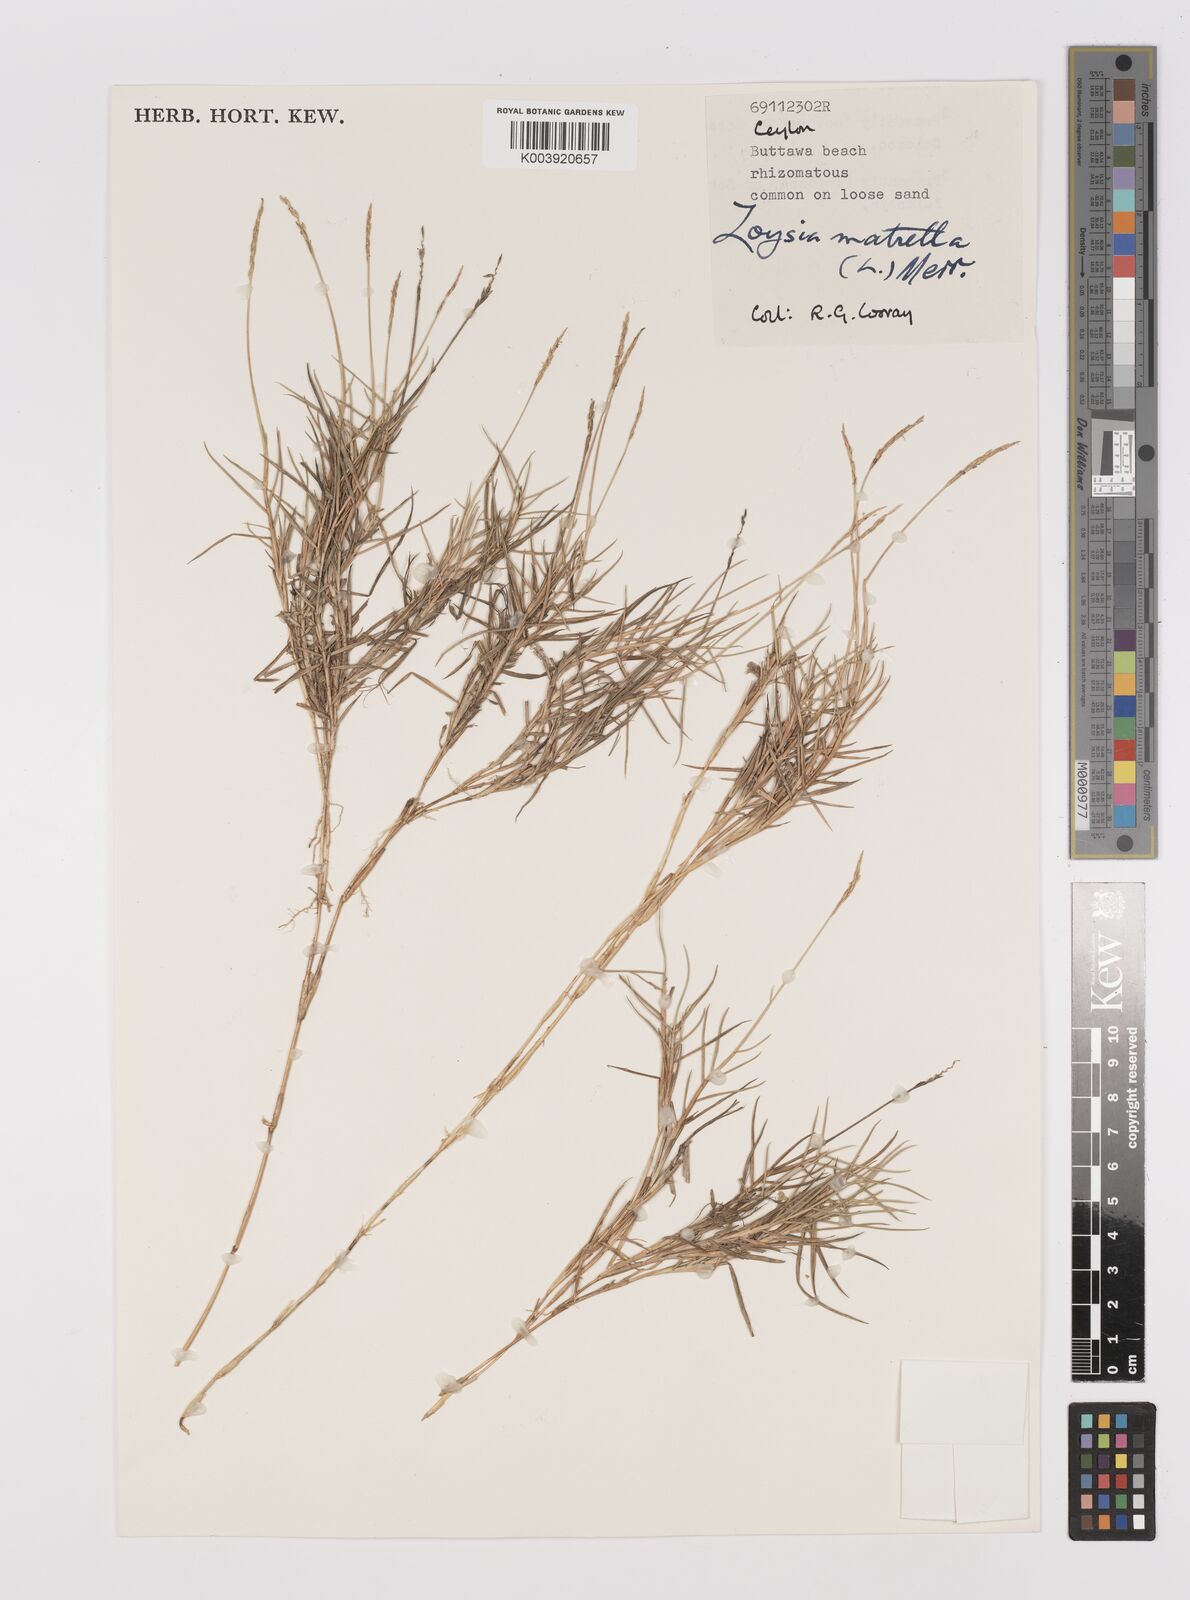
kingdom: Plantae
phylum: Tracheophyta
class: Liliopsida
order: Poales
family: Poaceae
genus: Zoysia
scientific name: Zoysia matrella
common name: Manila grass
